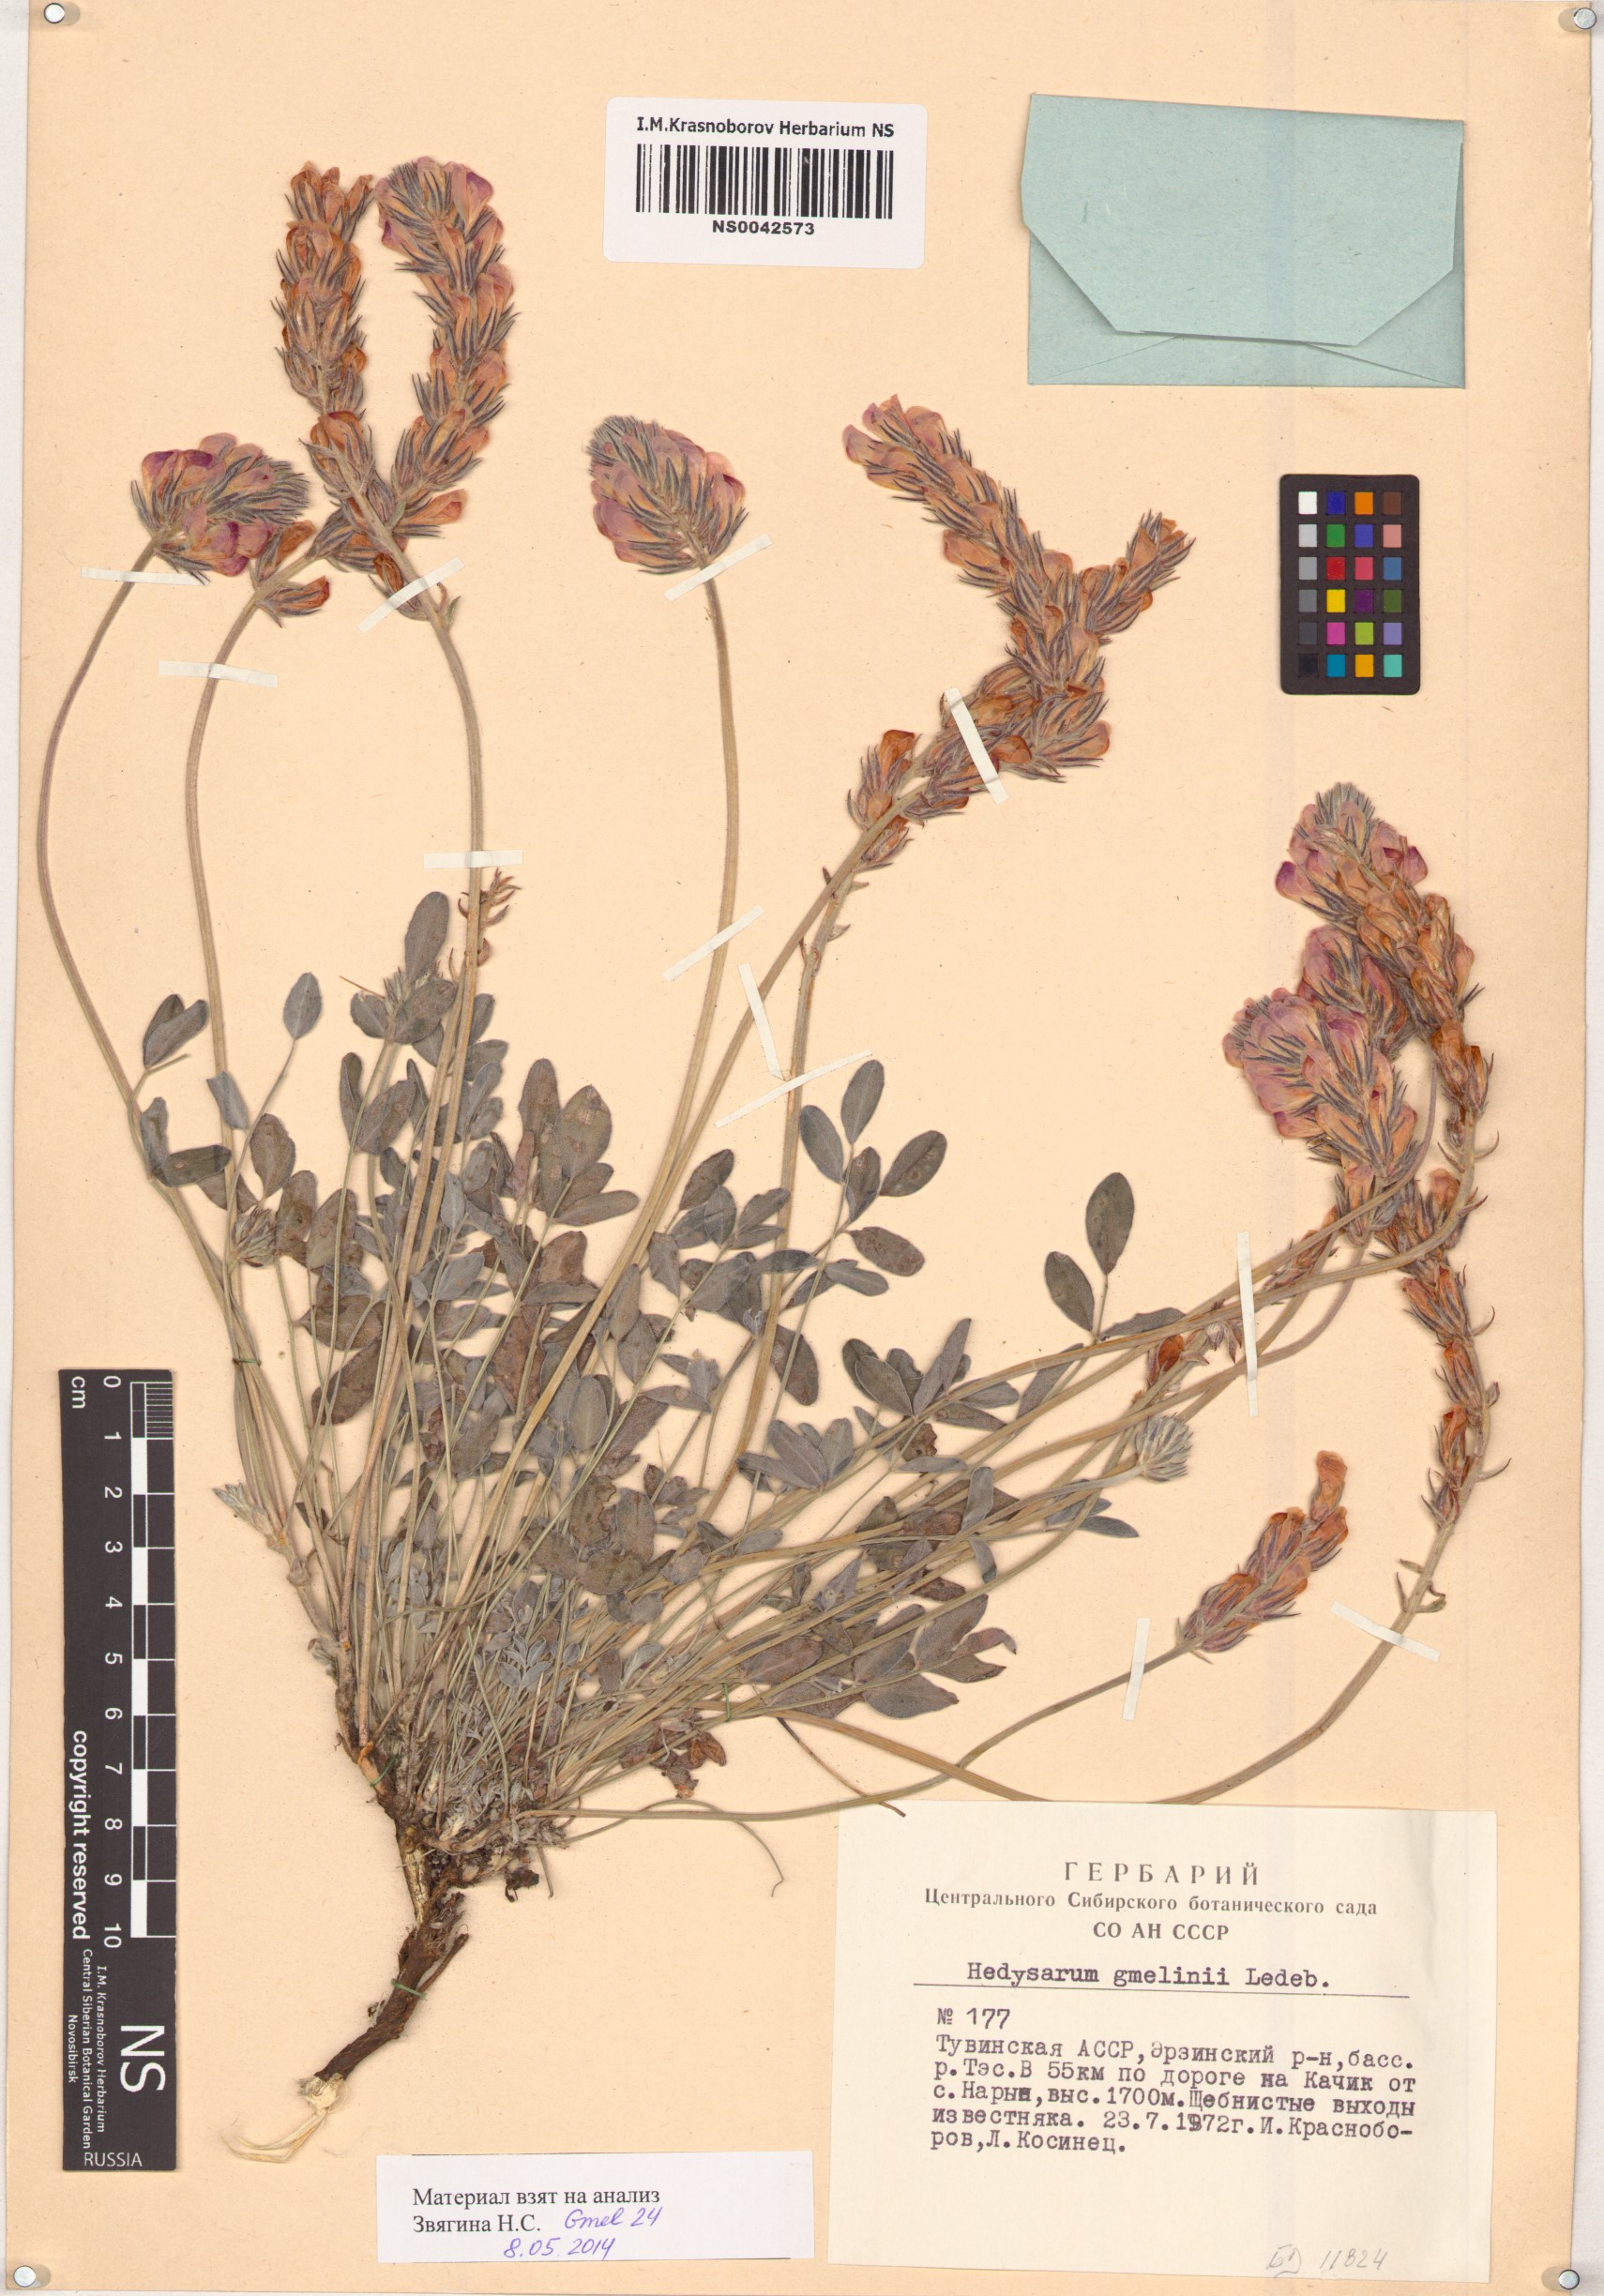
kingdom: Plantae
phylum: Tracheophyta
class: Magnoliopsida
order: Fabales
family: Fabaceae
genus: Hedysarum
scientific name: Hedysarum gmelinii
